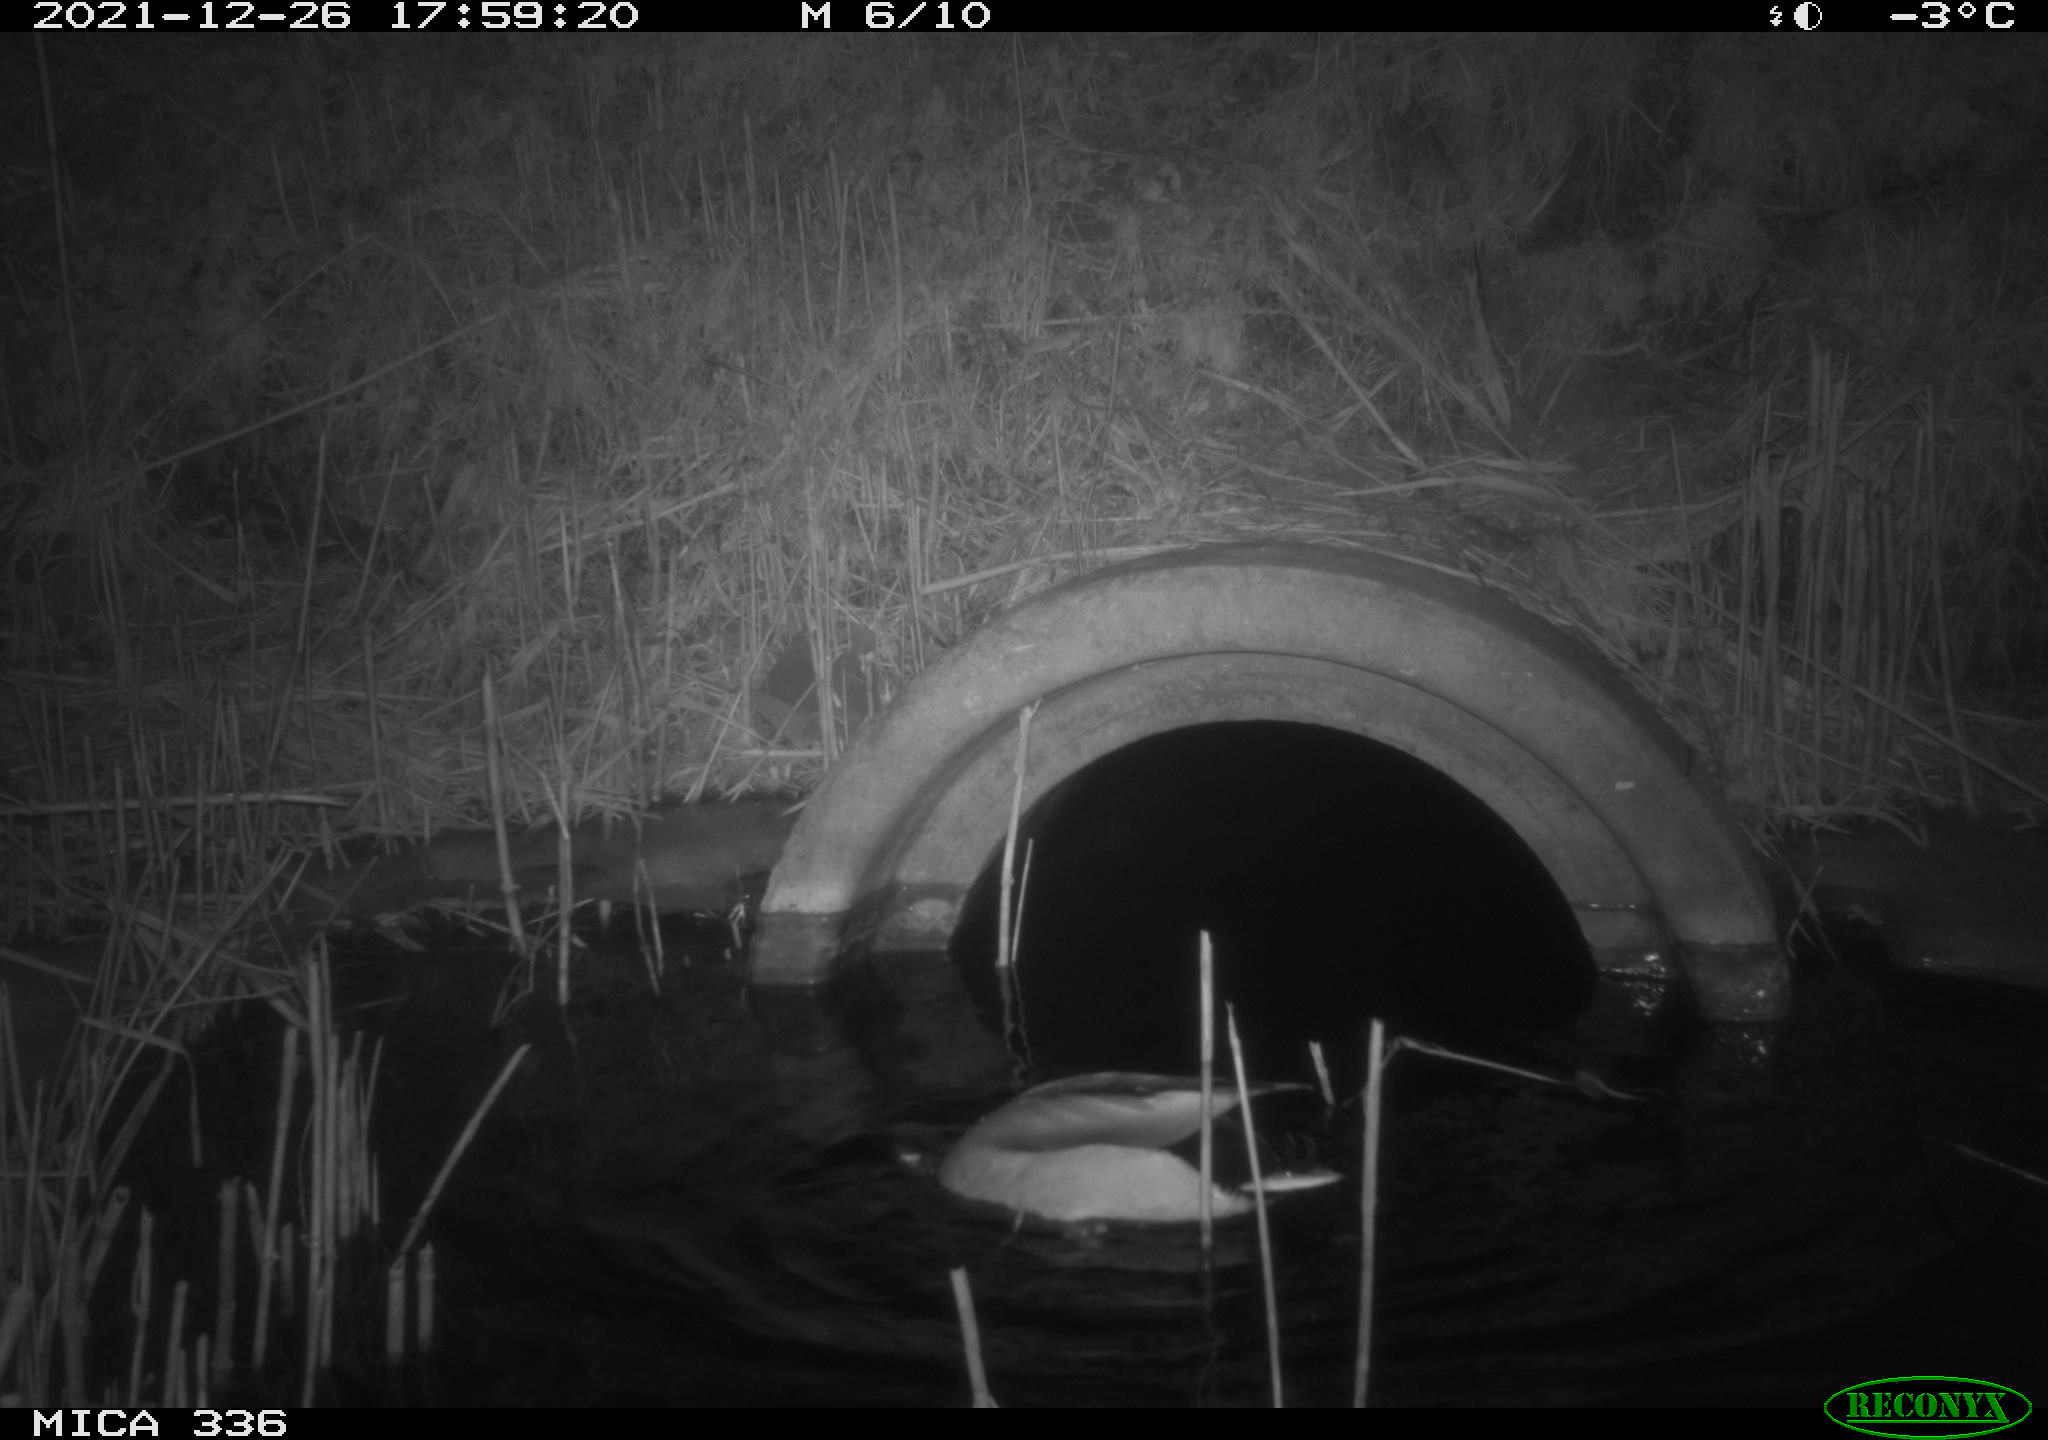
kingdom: Animalia
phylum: Chordata
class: Aves
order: Anseriformes
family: Anatidae
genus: Anas
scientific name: Anas platyrhynchos
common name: Mallard
